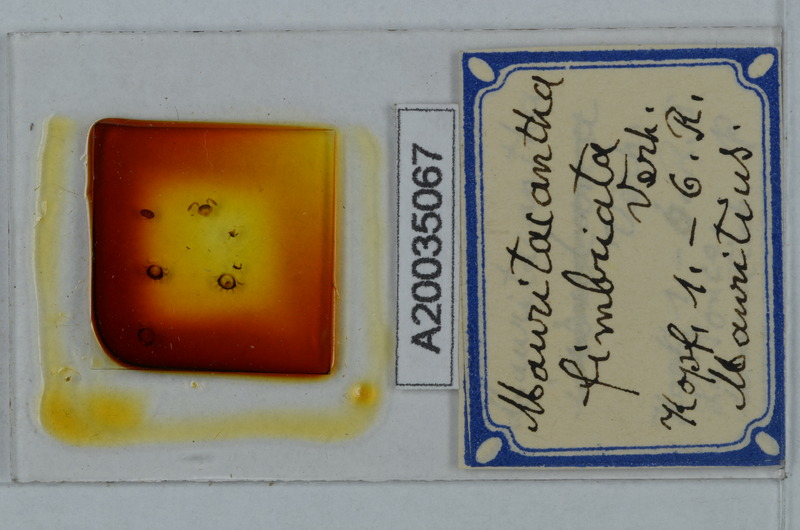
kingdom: Animalia
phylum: Arthropoda
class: Diplopoda
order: Polydesmida
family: Trichopolydesmidae
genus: Mauritacantha
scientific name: Mauritacantha fimbriata
